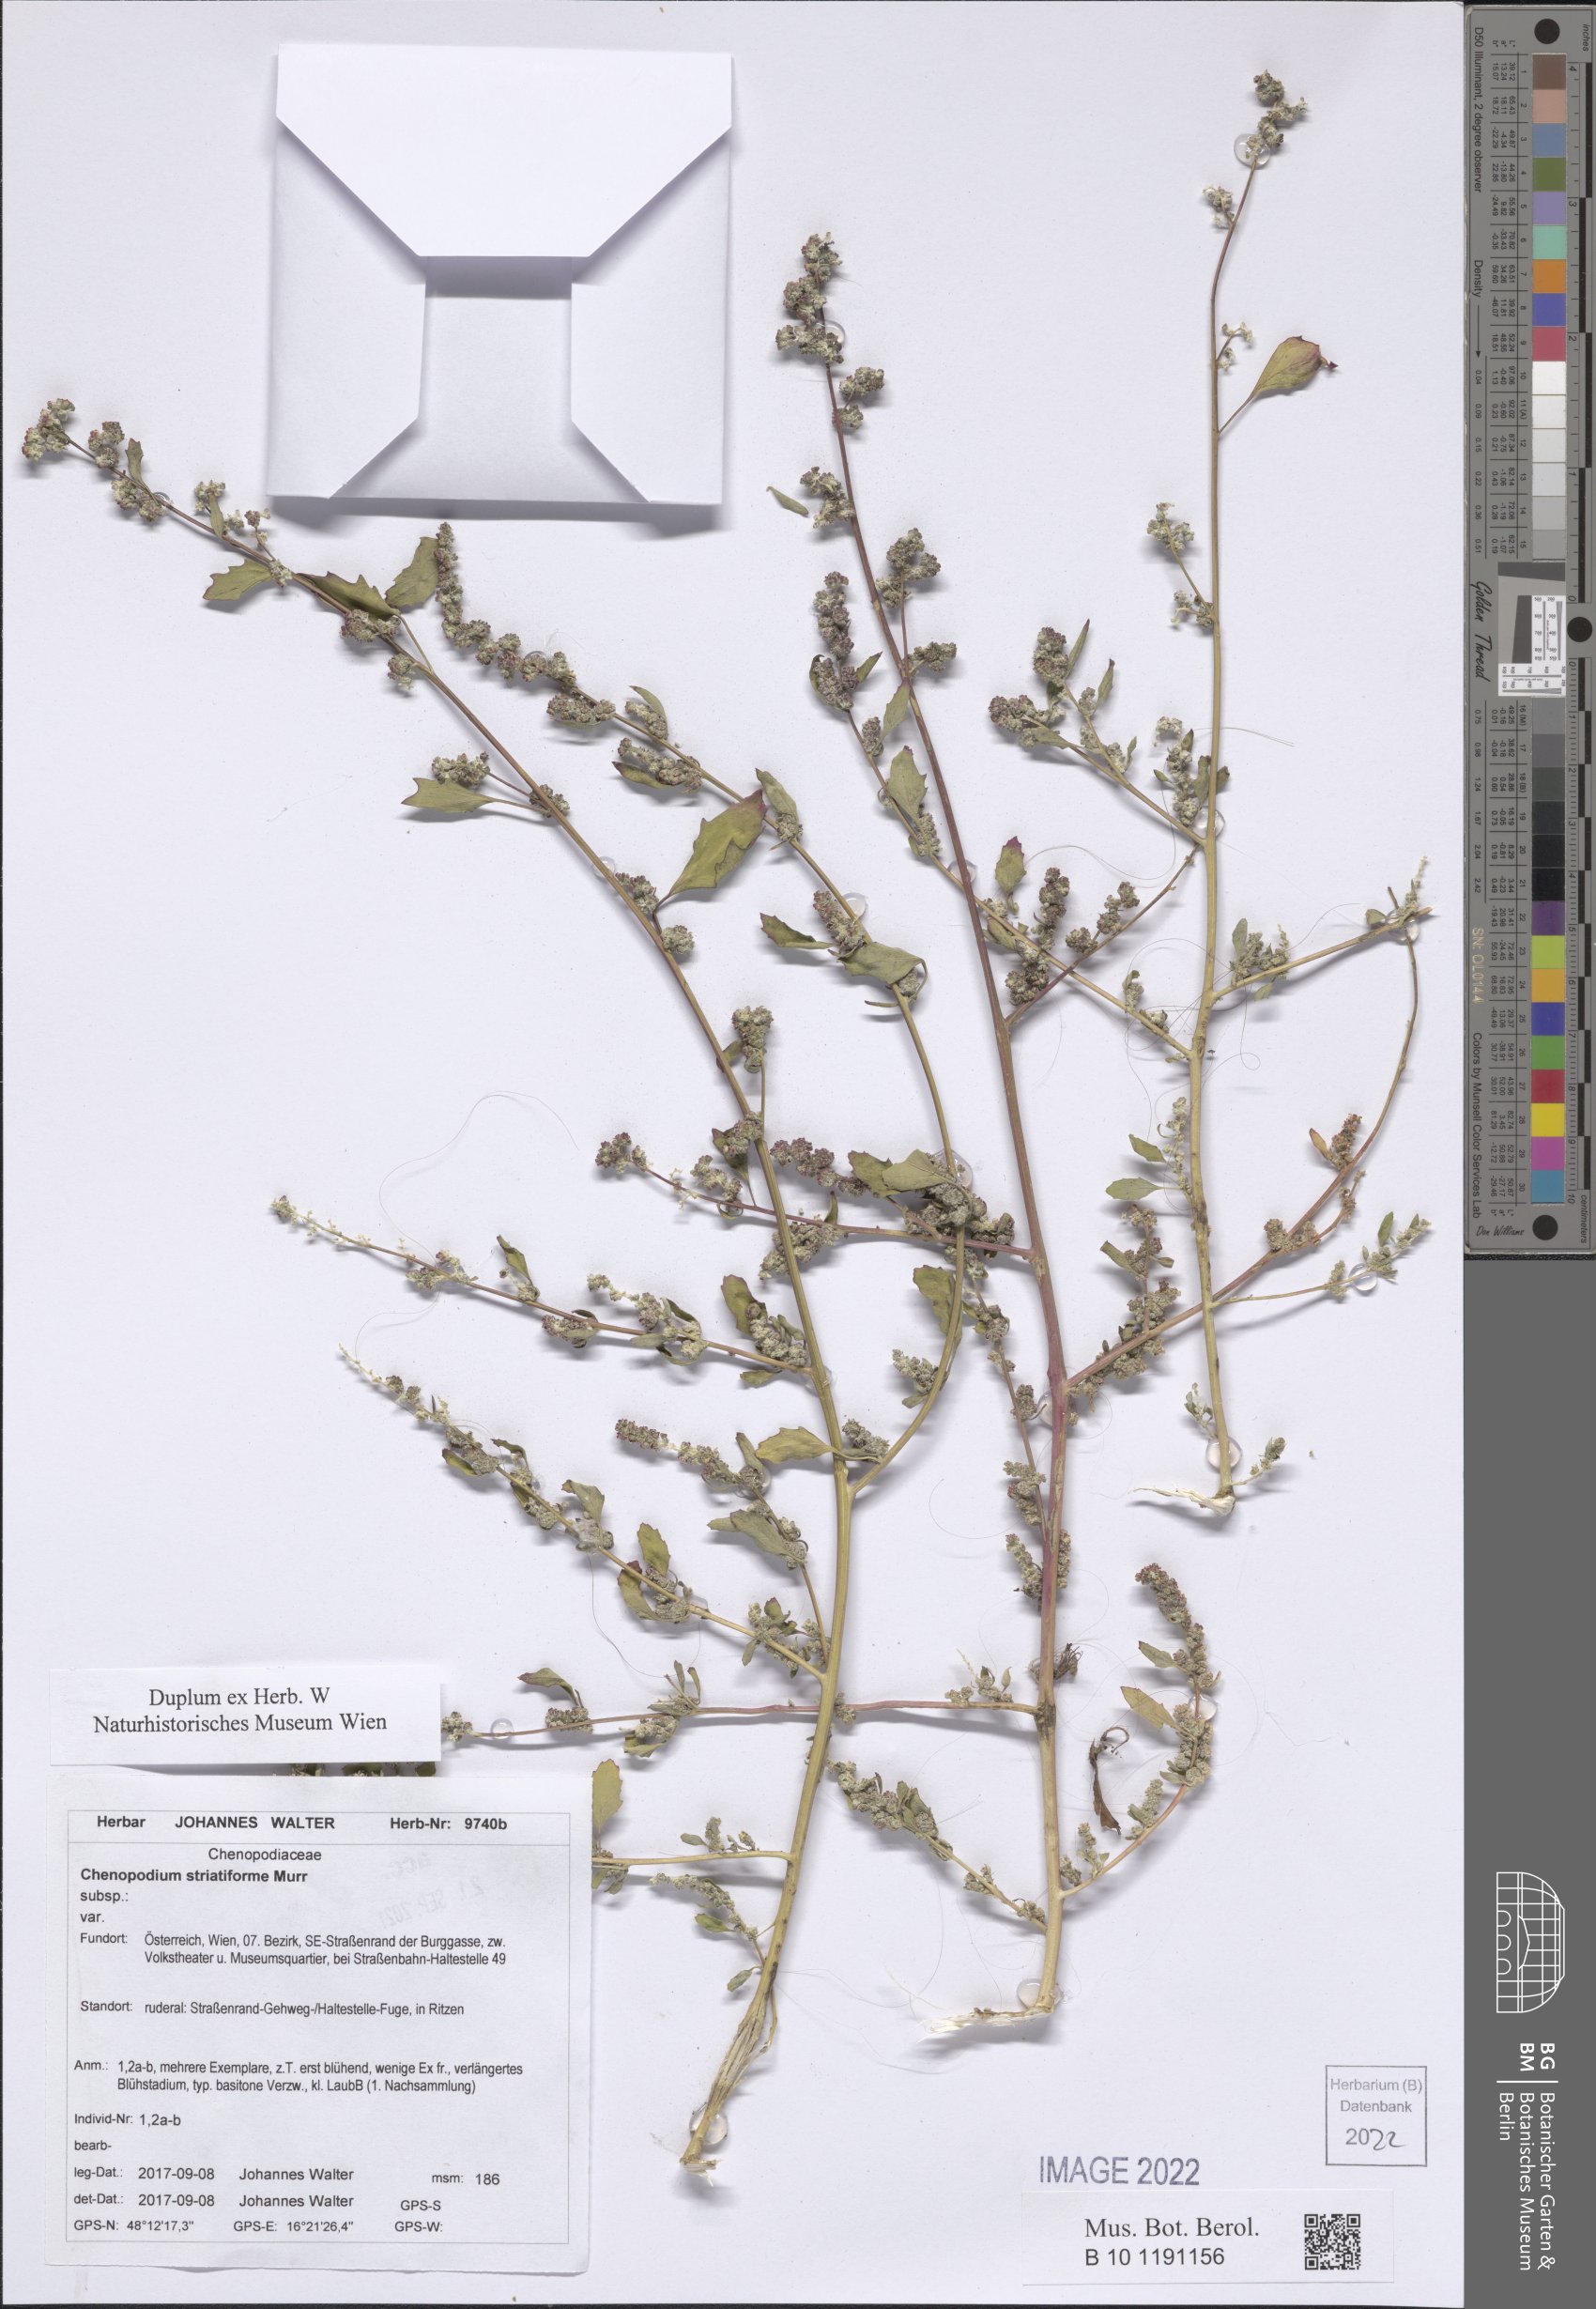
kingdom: Plantae
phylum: Tracheophyta
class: Magnoliopsida
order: Caryophyllales
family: Amaranthaceae
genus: Chenopodium
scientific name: Chenopodium striatiforme
